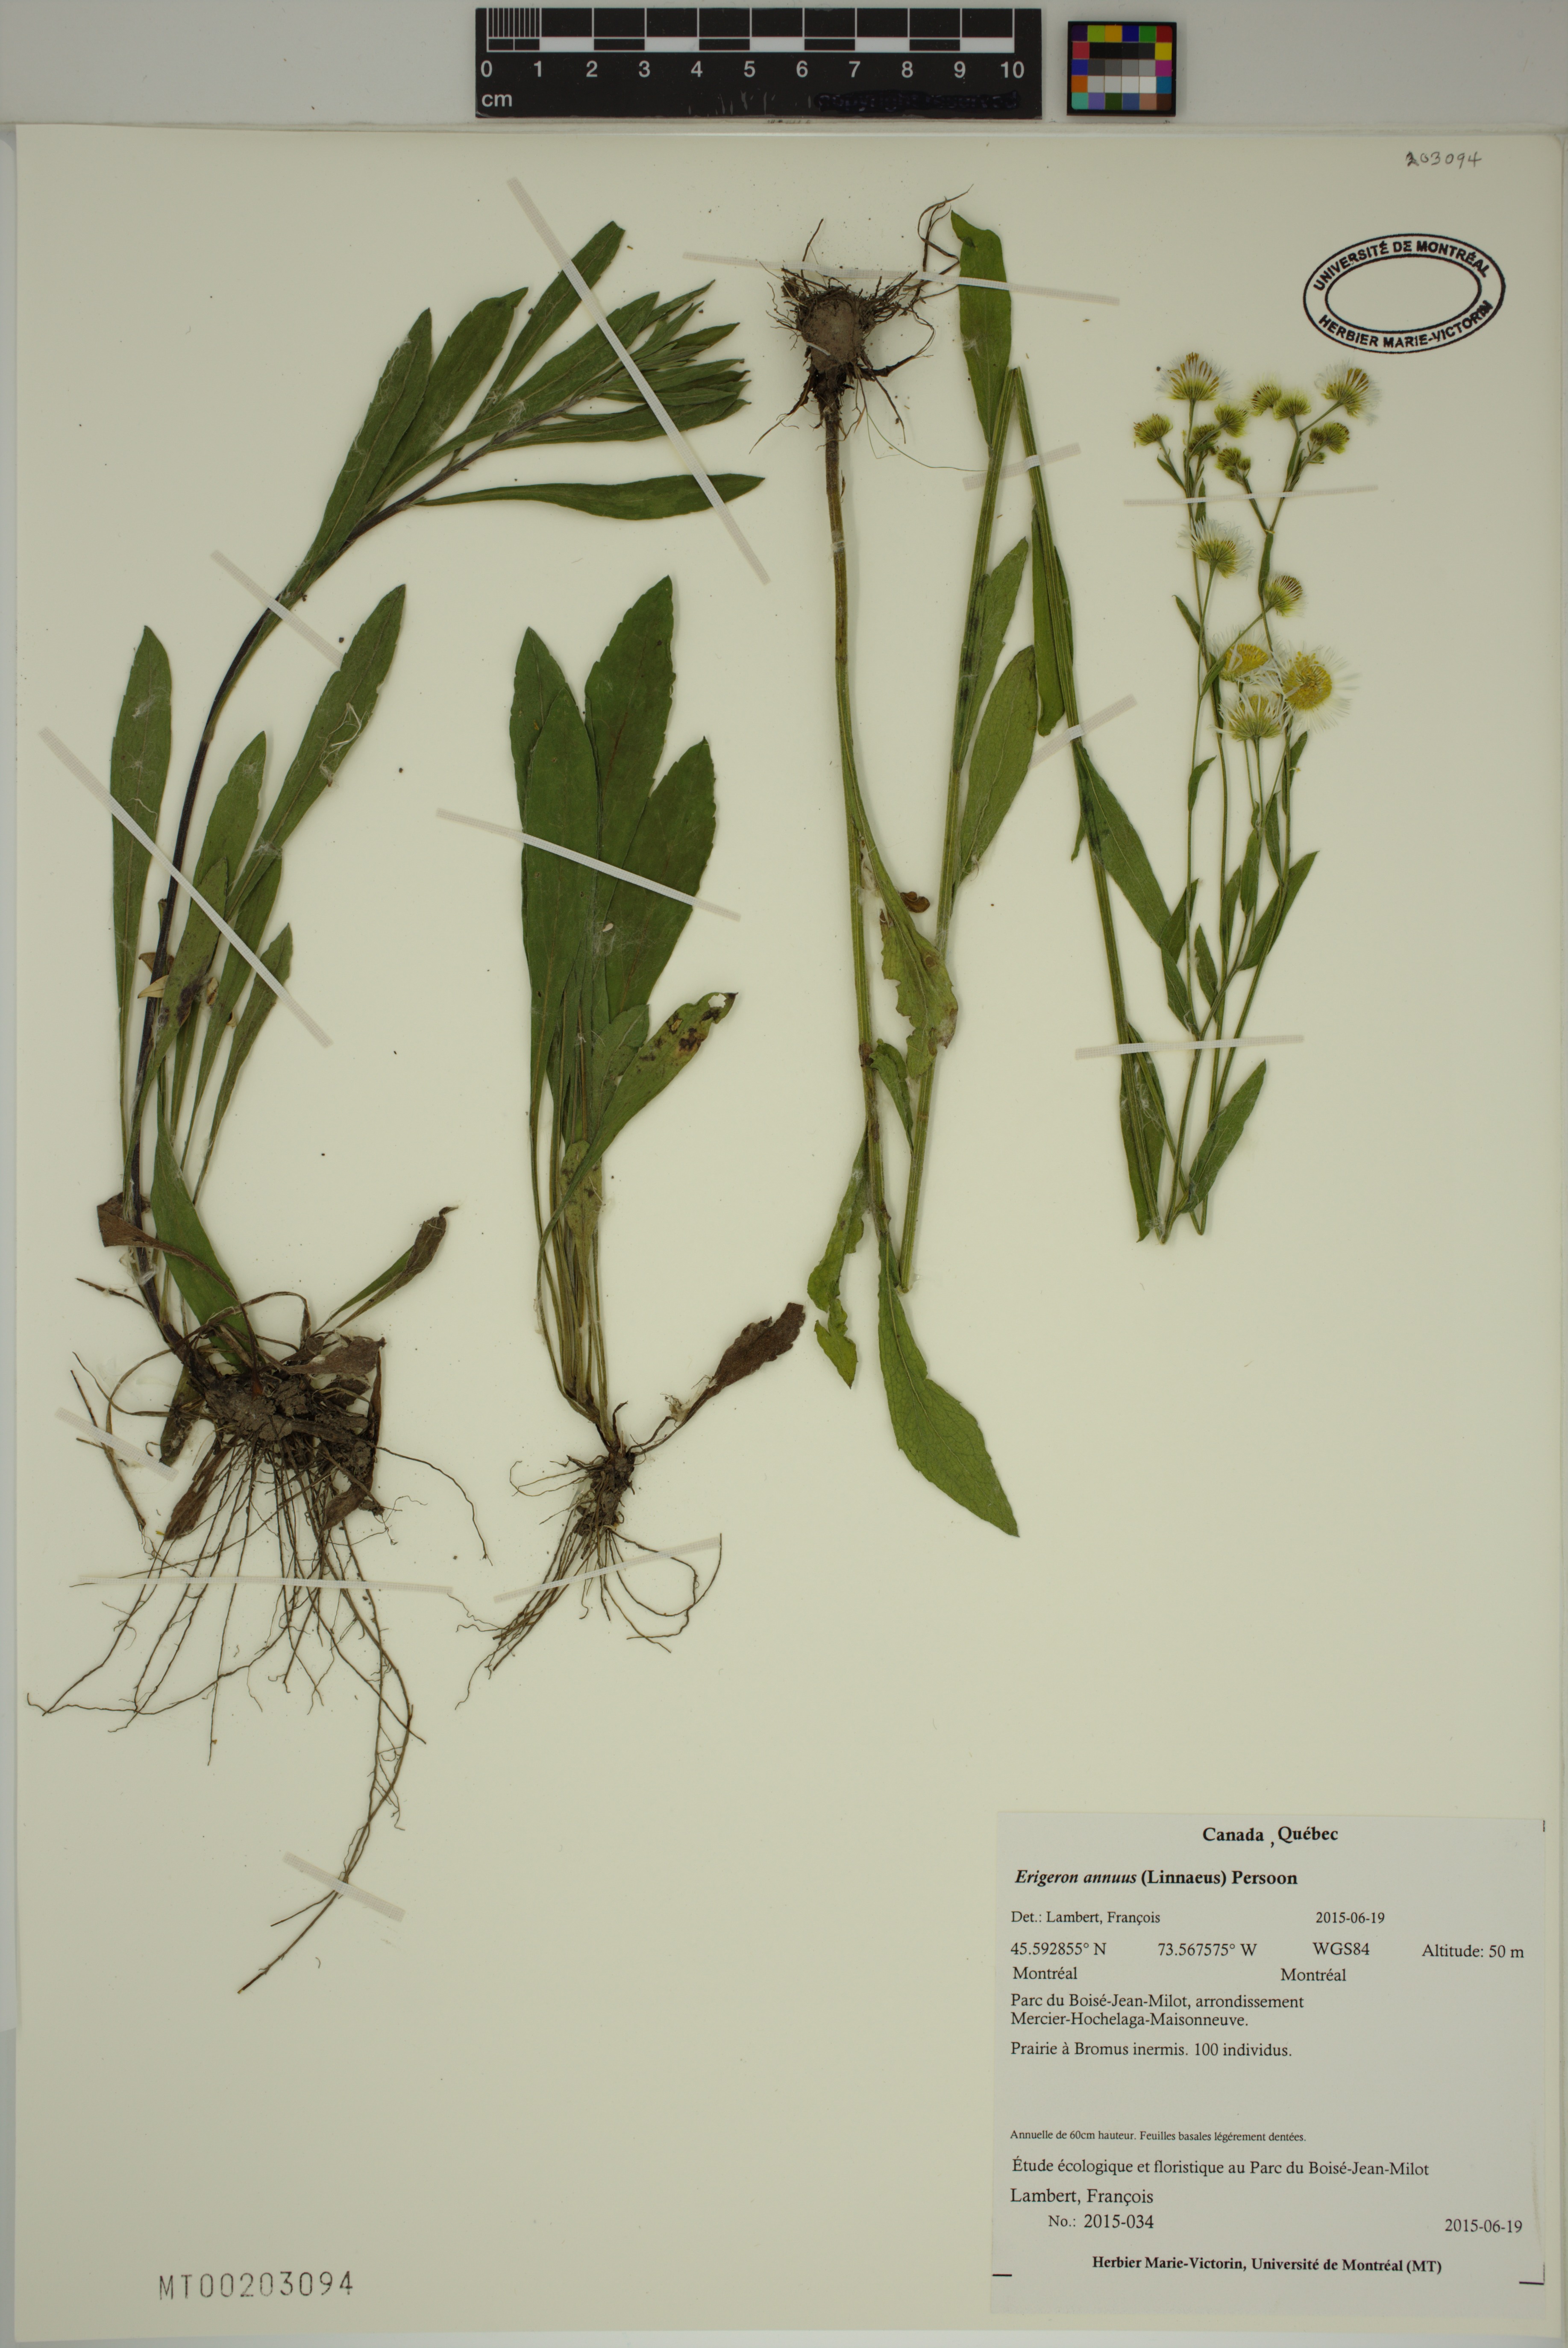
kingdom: Plantae
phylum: Tracheophyta
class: Magnoliopsida
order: Asterales
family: Asteraceae
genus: Erigeron
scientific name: Erigeron annuus
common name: Tall fleabane
